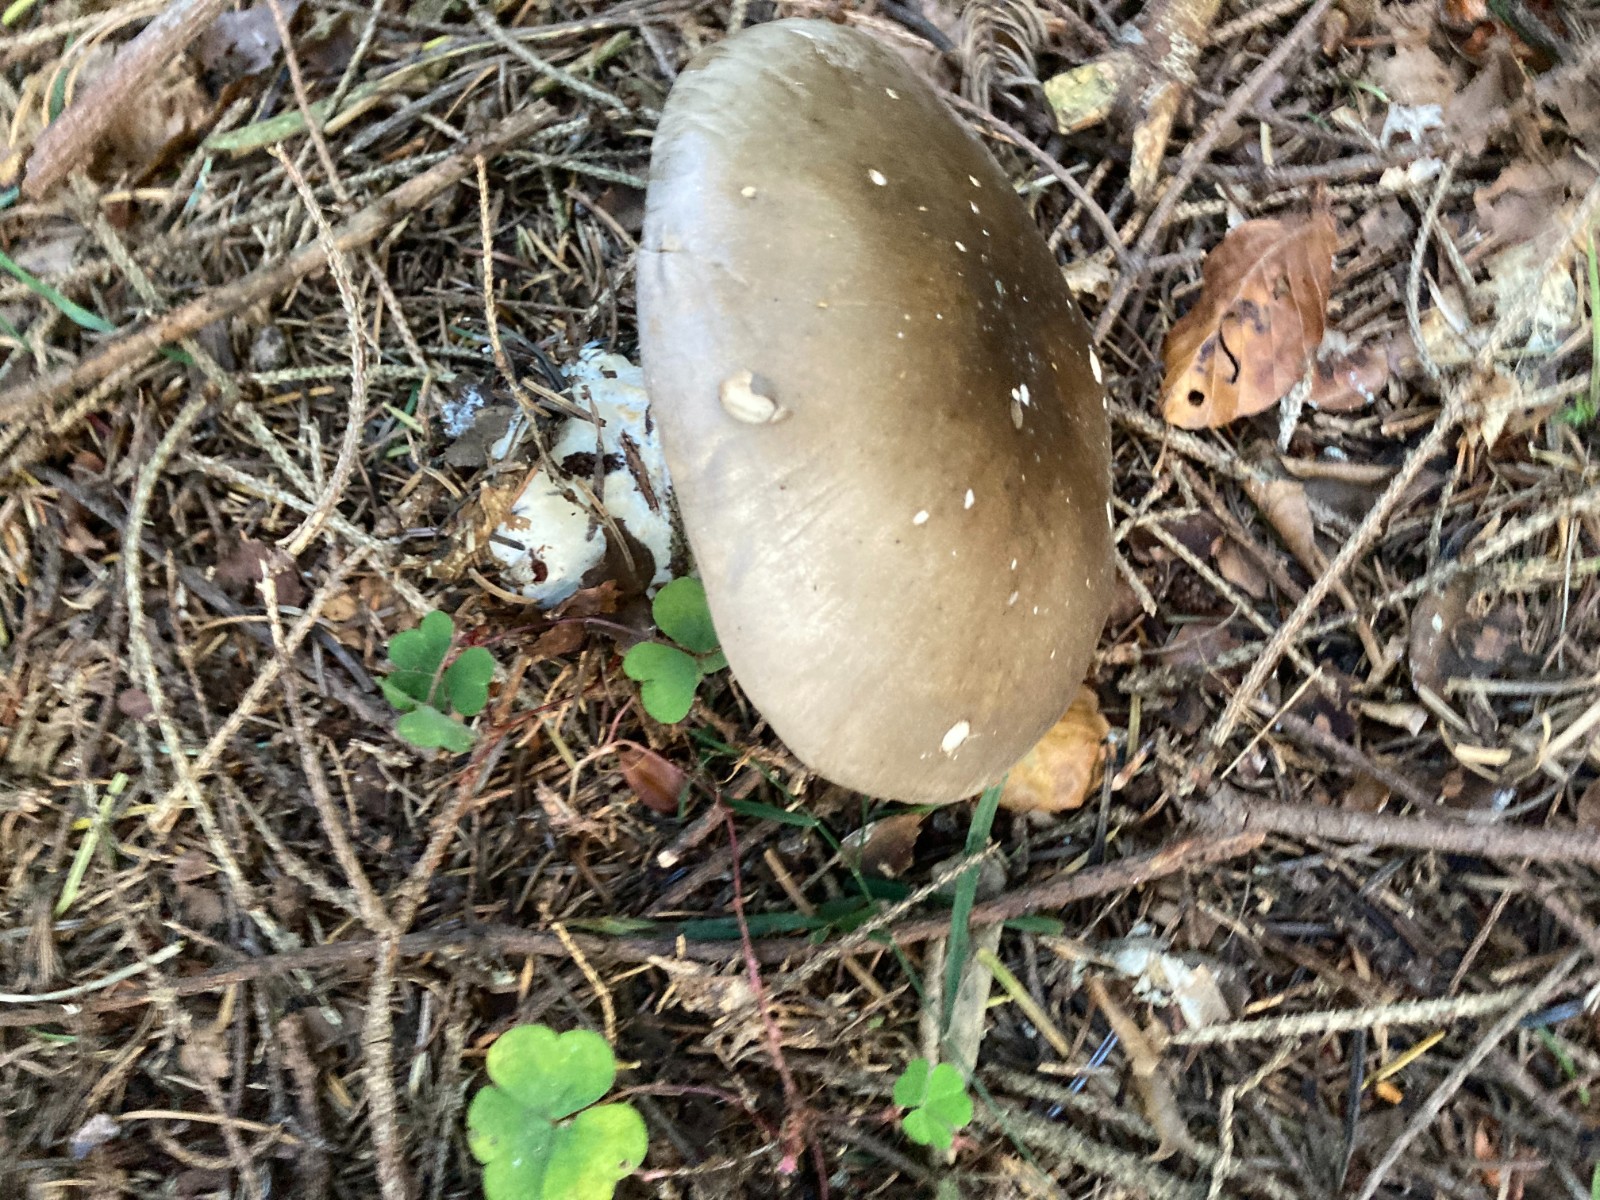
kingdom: Fungi
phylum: Basidiomycota
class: Agaricomycetes
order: Agaricales
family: Tricholomataceae
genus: Clitocybe
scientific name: Clitocybe nebularis
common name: tåge-tragthat
